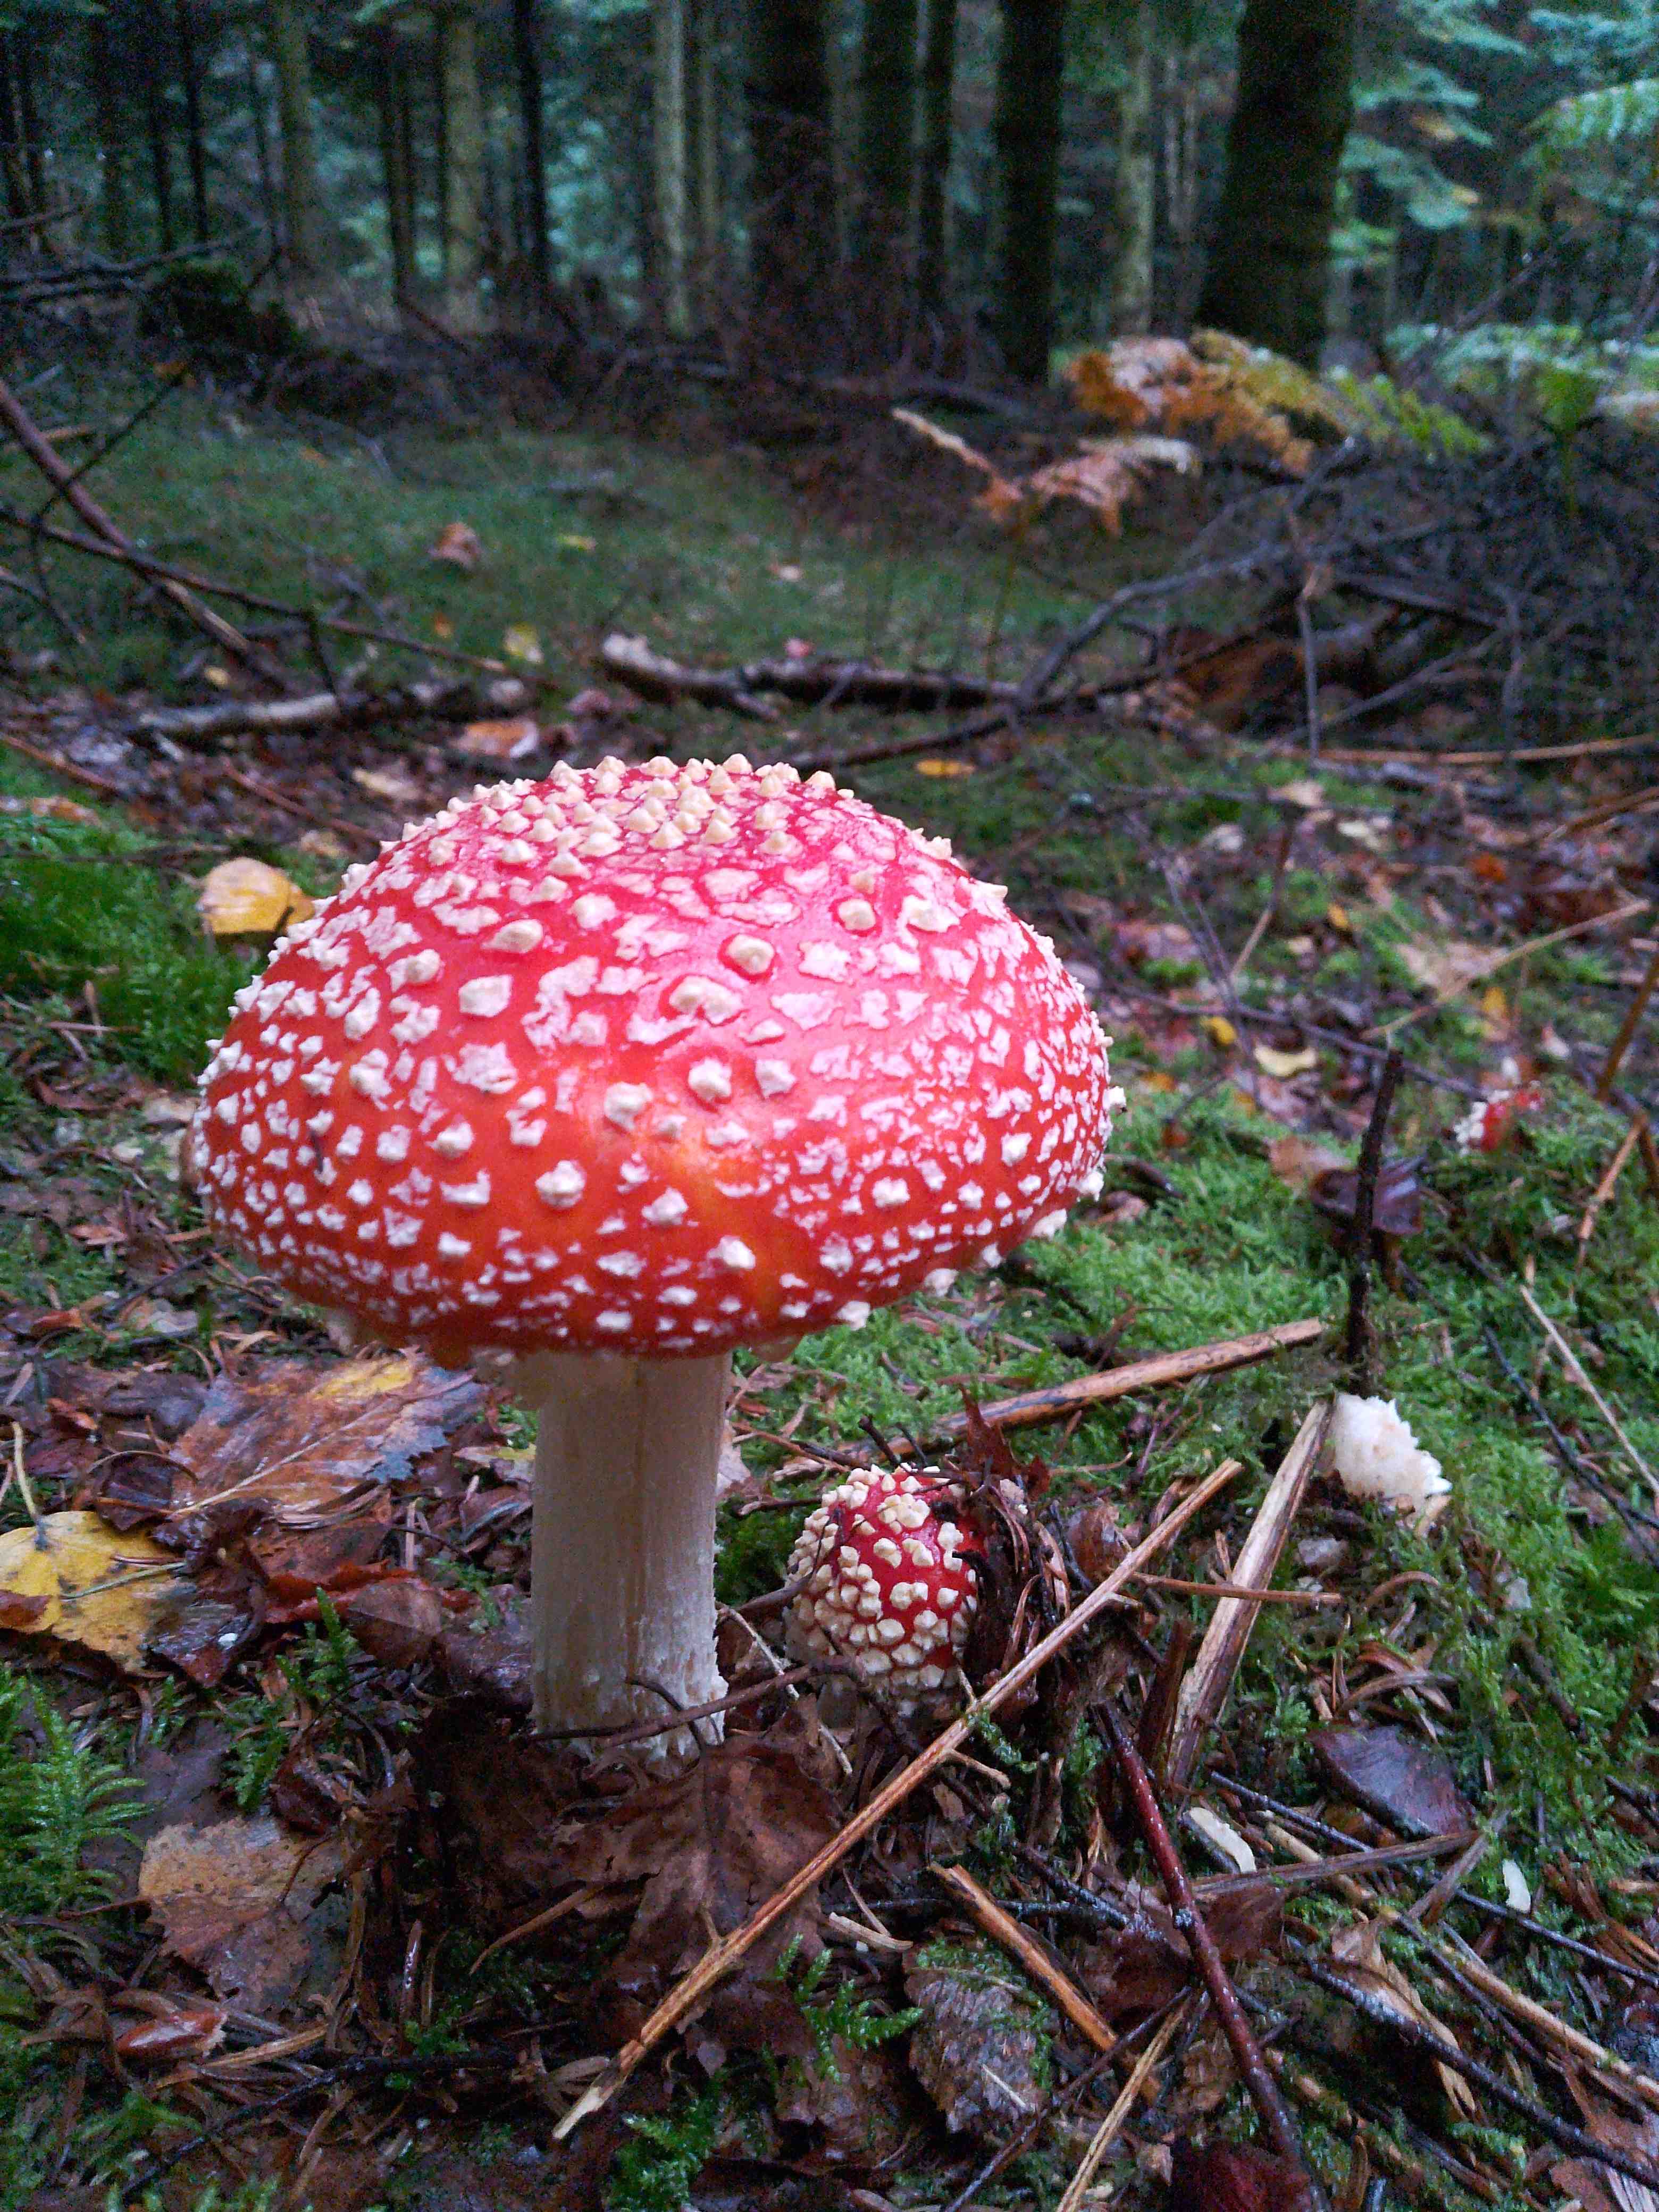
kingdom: Fungi
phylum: Basidiomycota
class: Agaricomycetes
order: Agaricales
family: Amanitaceae
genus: Amanita
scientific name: Amanita muscaria
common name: rød fluesvamp
